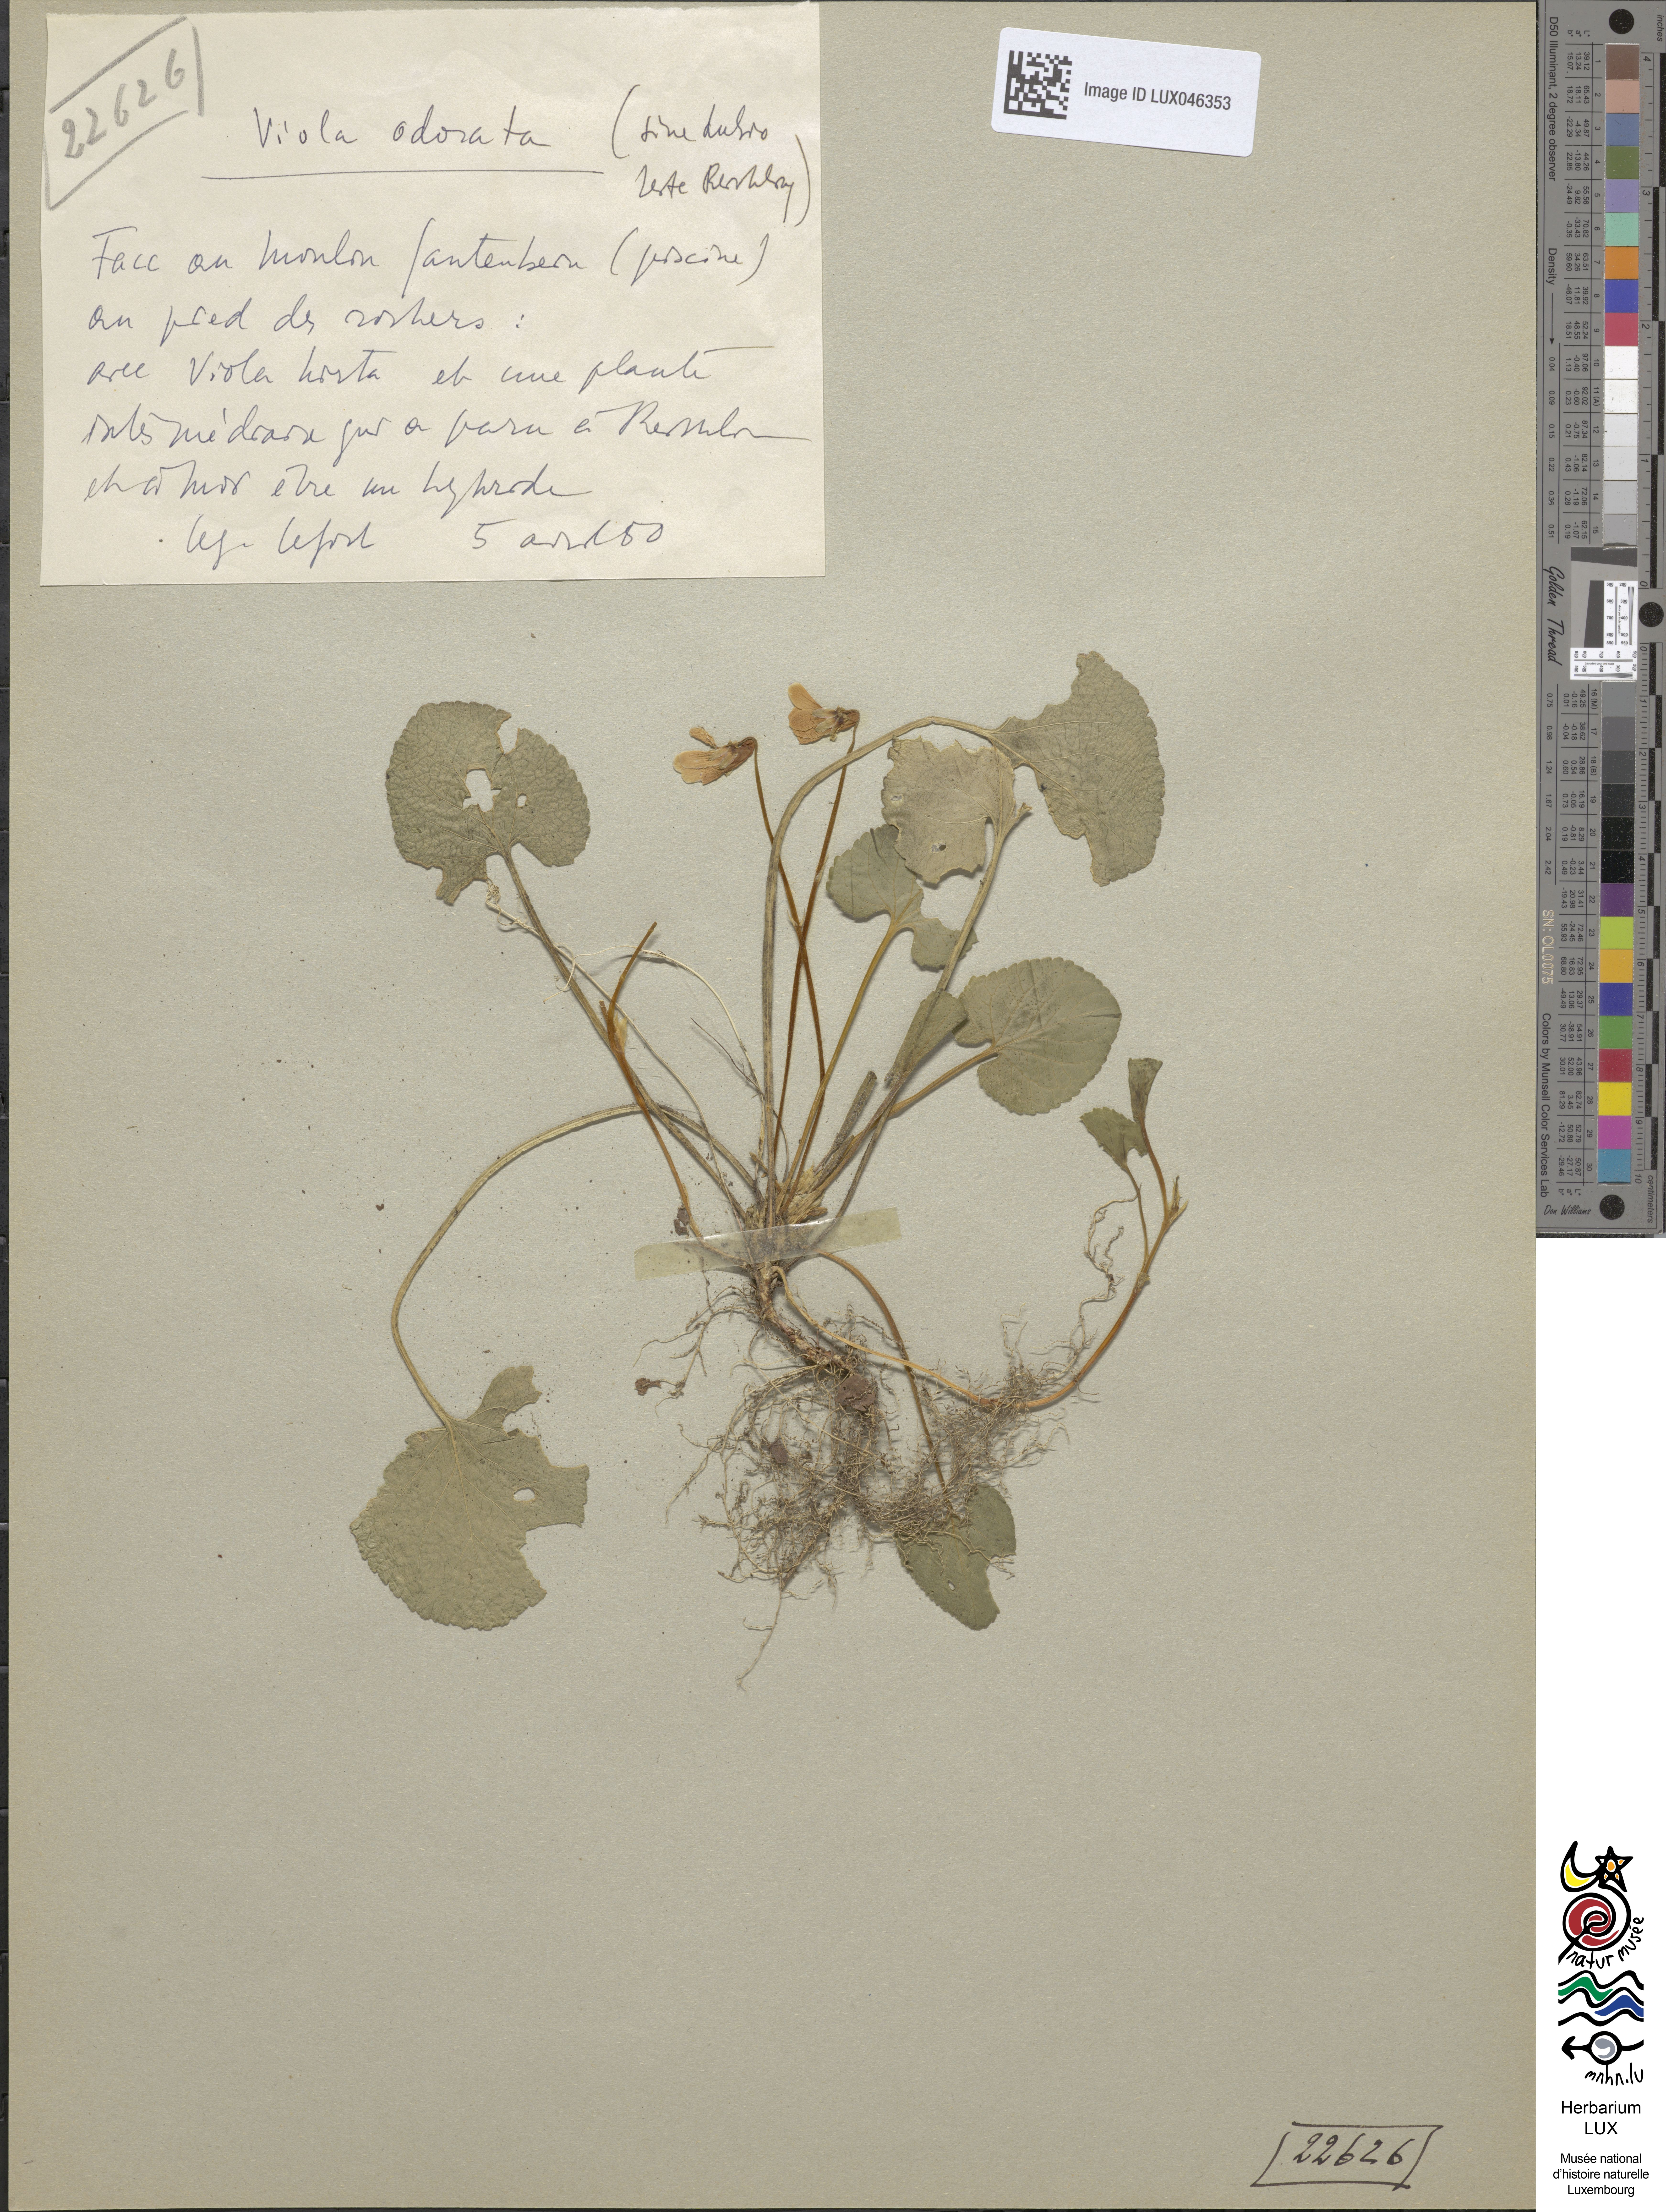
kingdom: Plantae
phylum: Tracheophyta
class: Magnoliopsida
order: Malpighiales
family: Violaceae
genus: Viola
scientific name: Viola odorata
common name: Sweet violet
